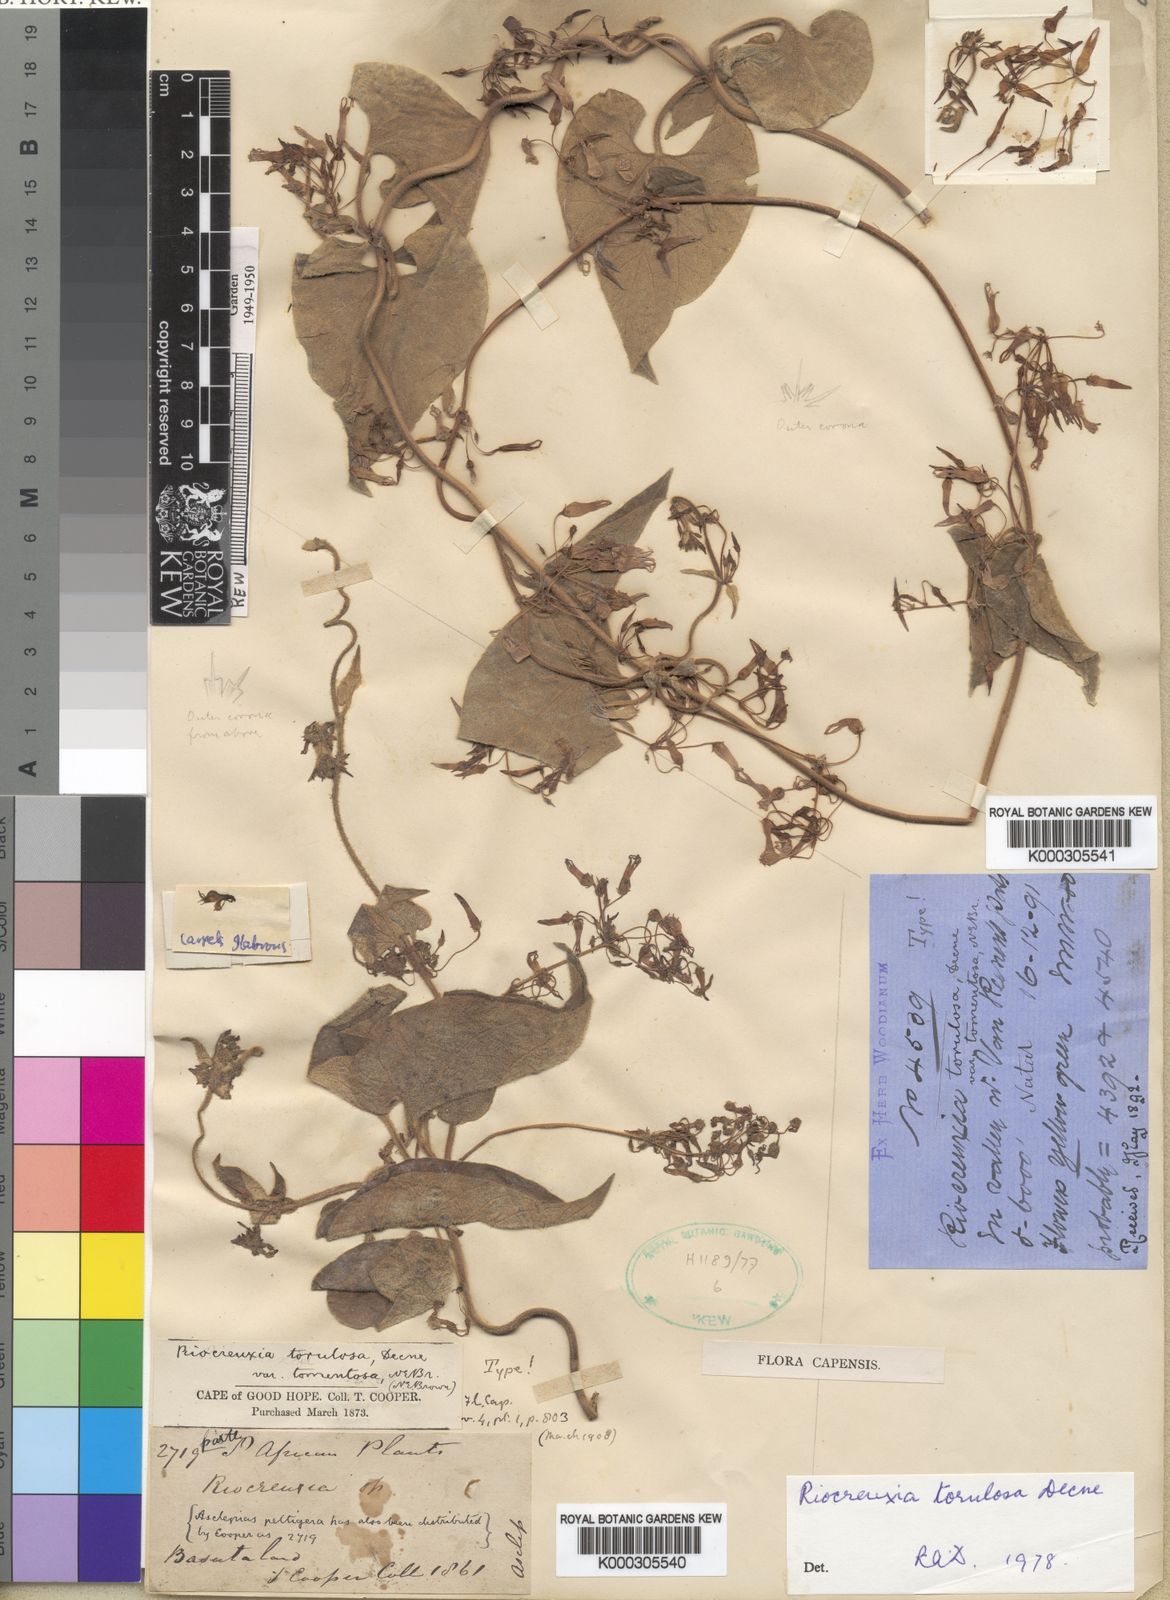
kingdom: Plantae
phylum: Tracheophyta
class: Magnoliopsida
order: Gentianales
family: Apocynaceae
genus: Riocreuxia
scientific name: Riocreuxia torulosa
